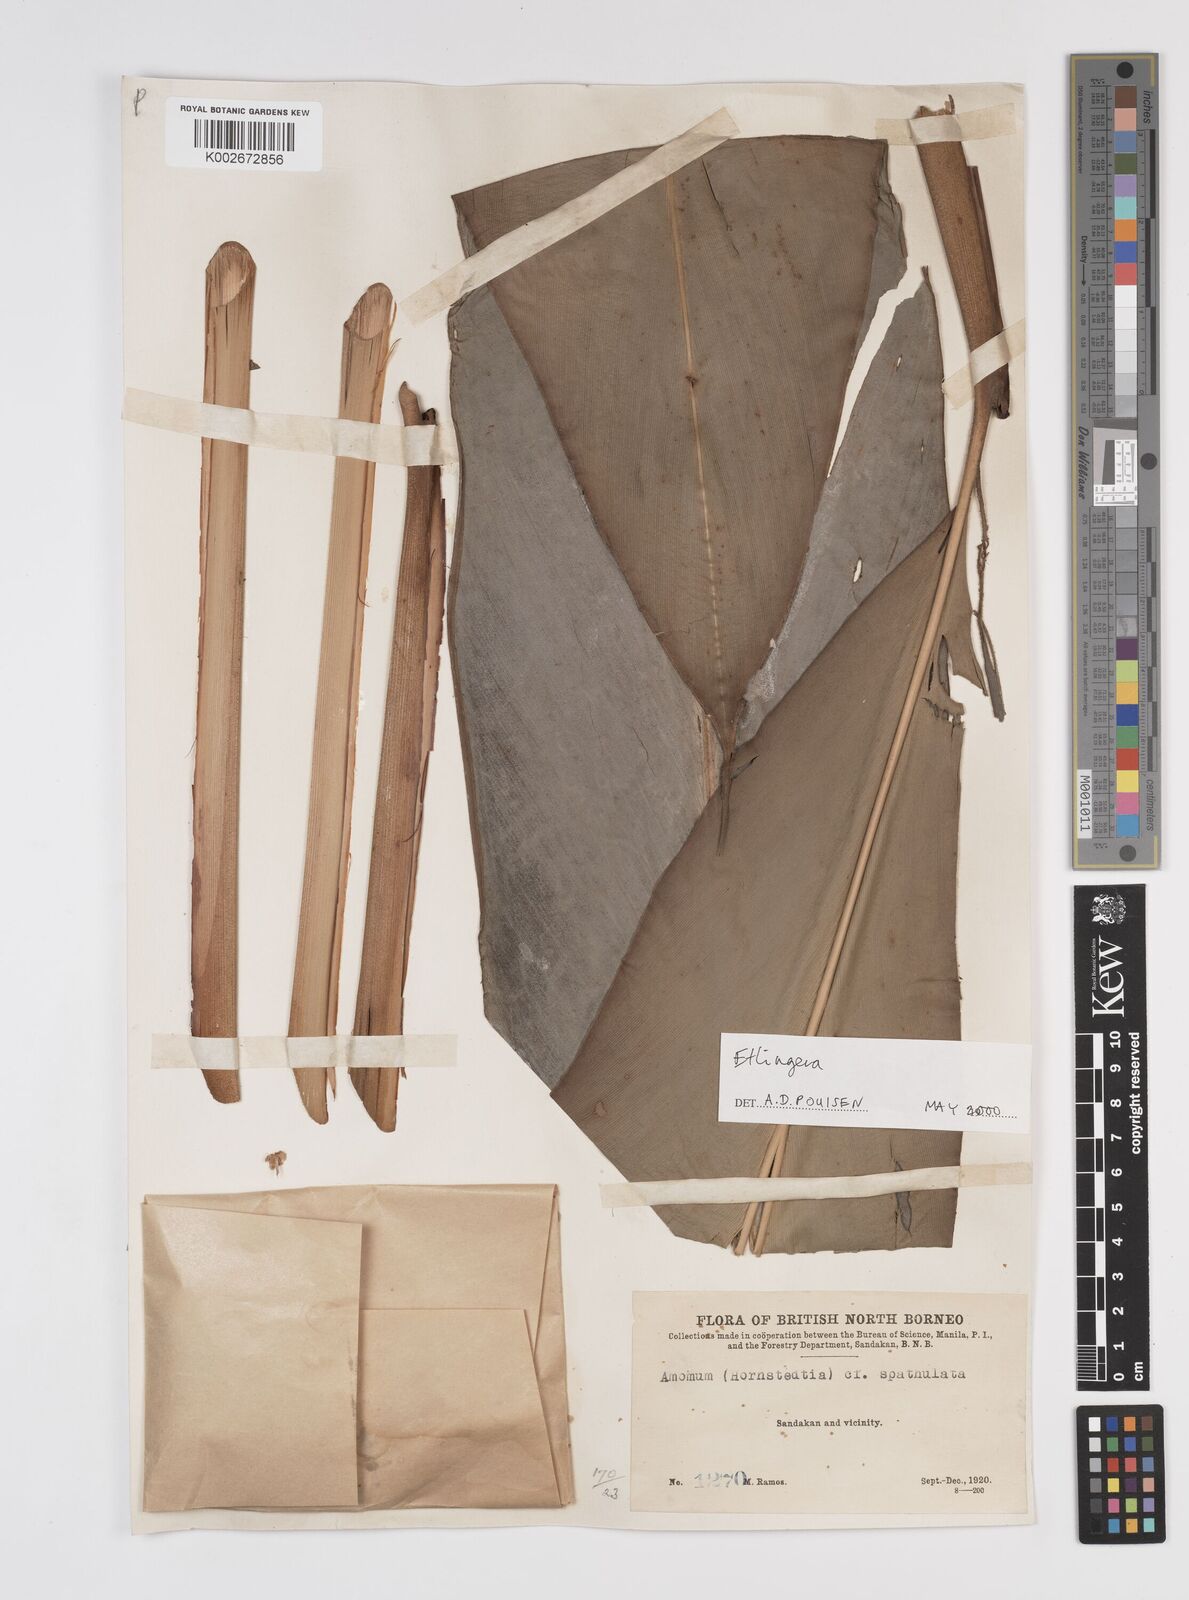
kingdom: Plantae
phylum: Tracheophyta
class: Liliopsida
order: Zingiberales
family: Zingiberaceae
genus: Etlingera
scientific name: Etlingera
